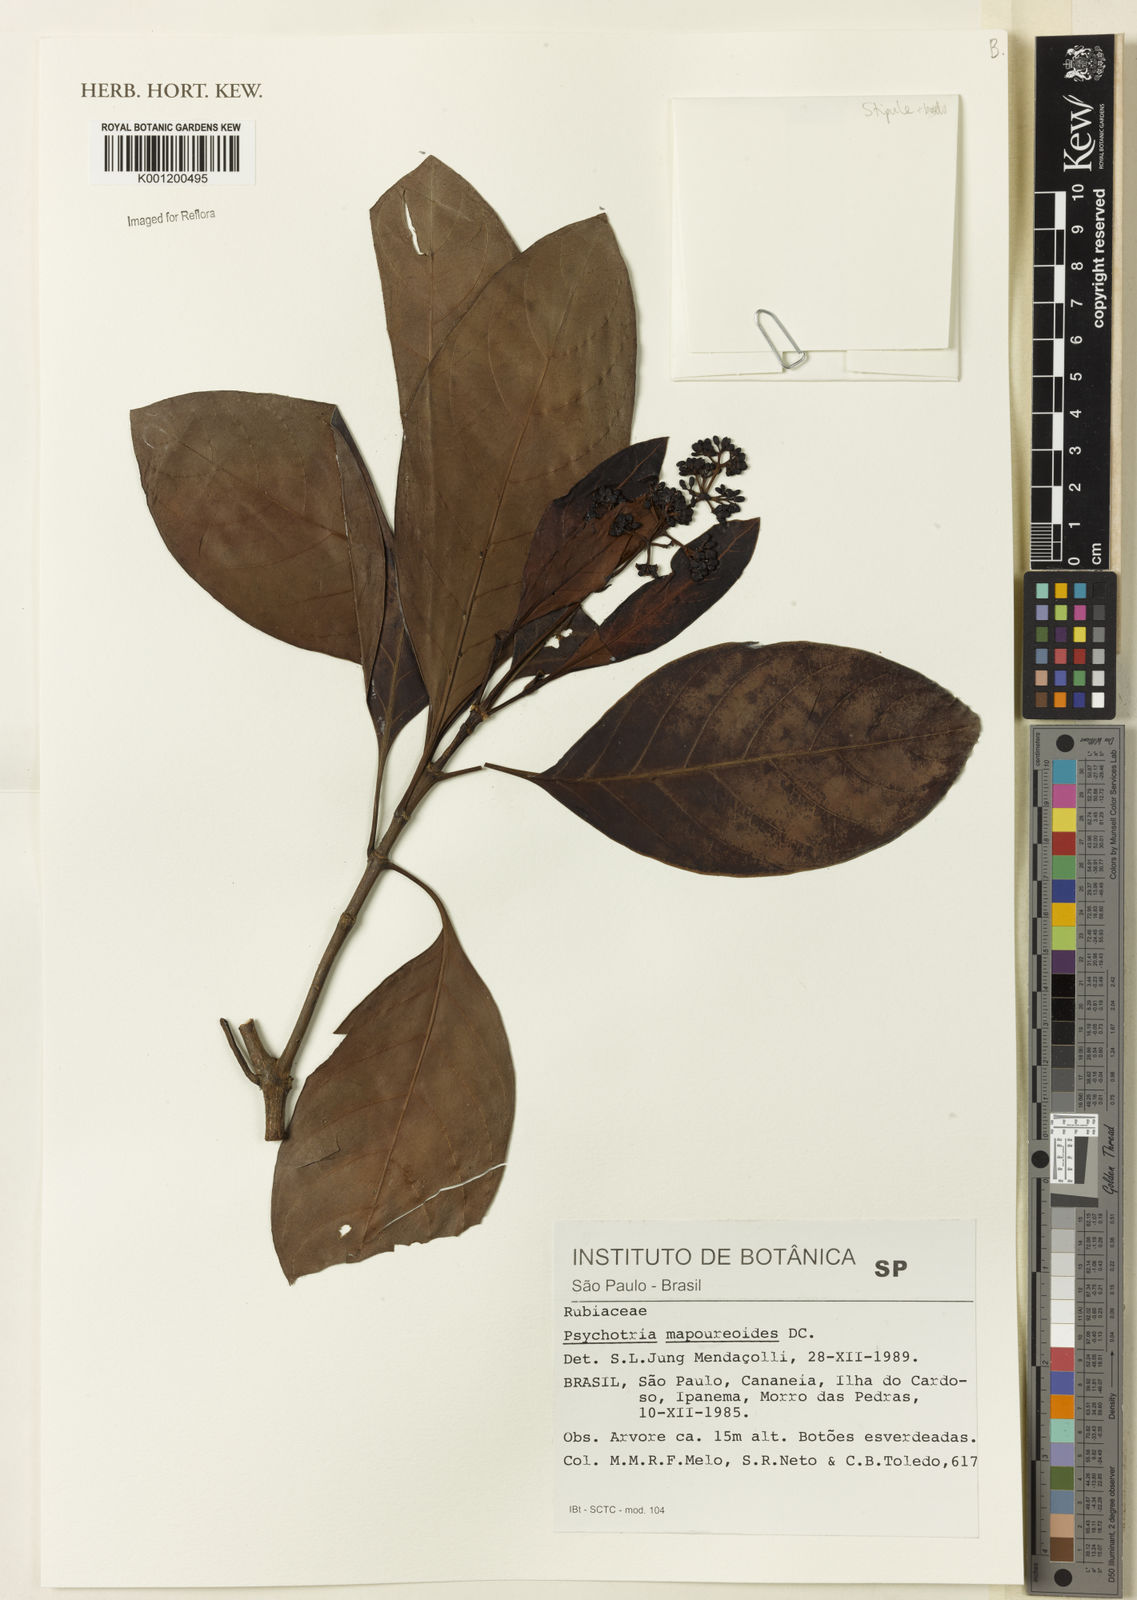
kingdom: Plantae
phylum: Tracheophyta
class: Magnoliopsida
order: Gentianales
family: Rubiaceae
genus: Psychotria
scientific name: Psychotria carthagenensis
